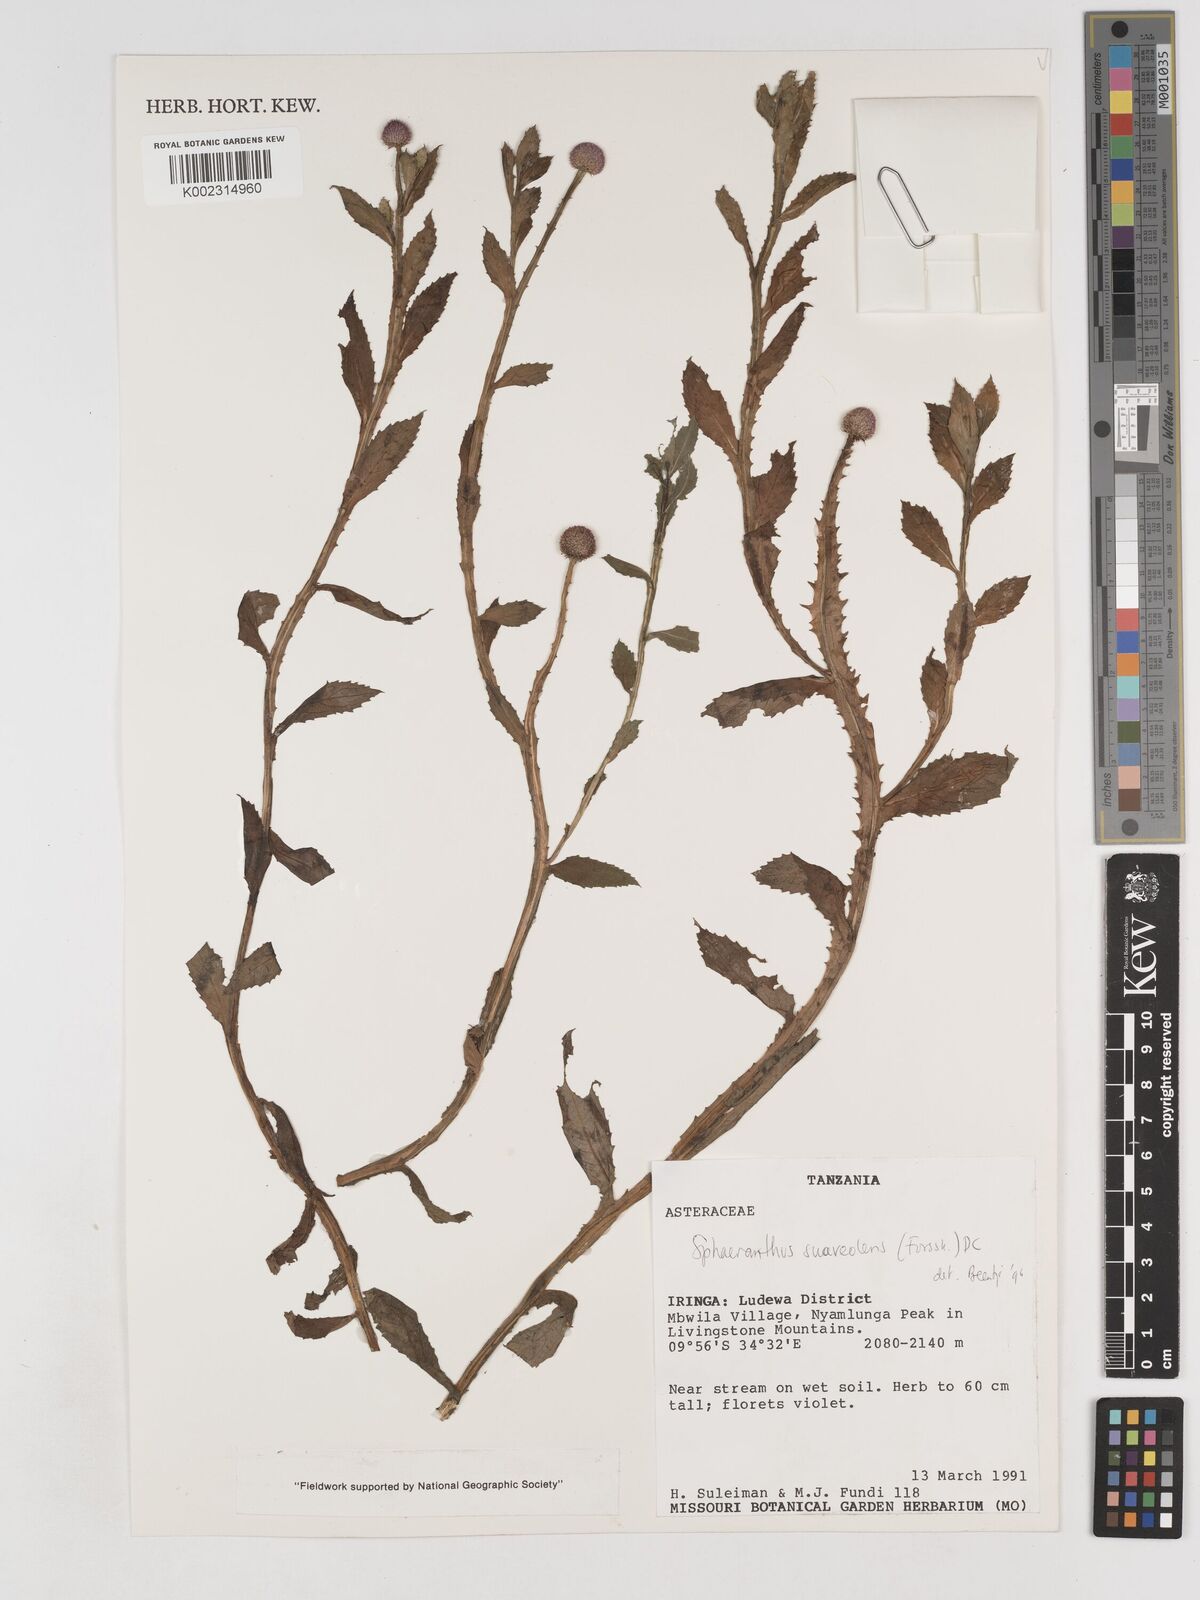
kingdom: Plantae
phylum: Tracheophyta
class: Magnoliopsida
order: Asterales
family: Asteraceae
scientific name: Asteraceae
